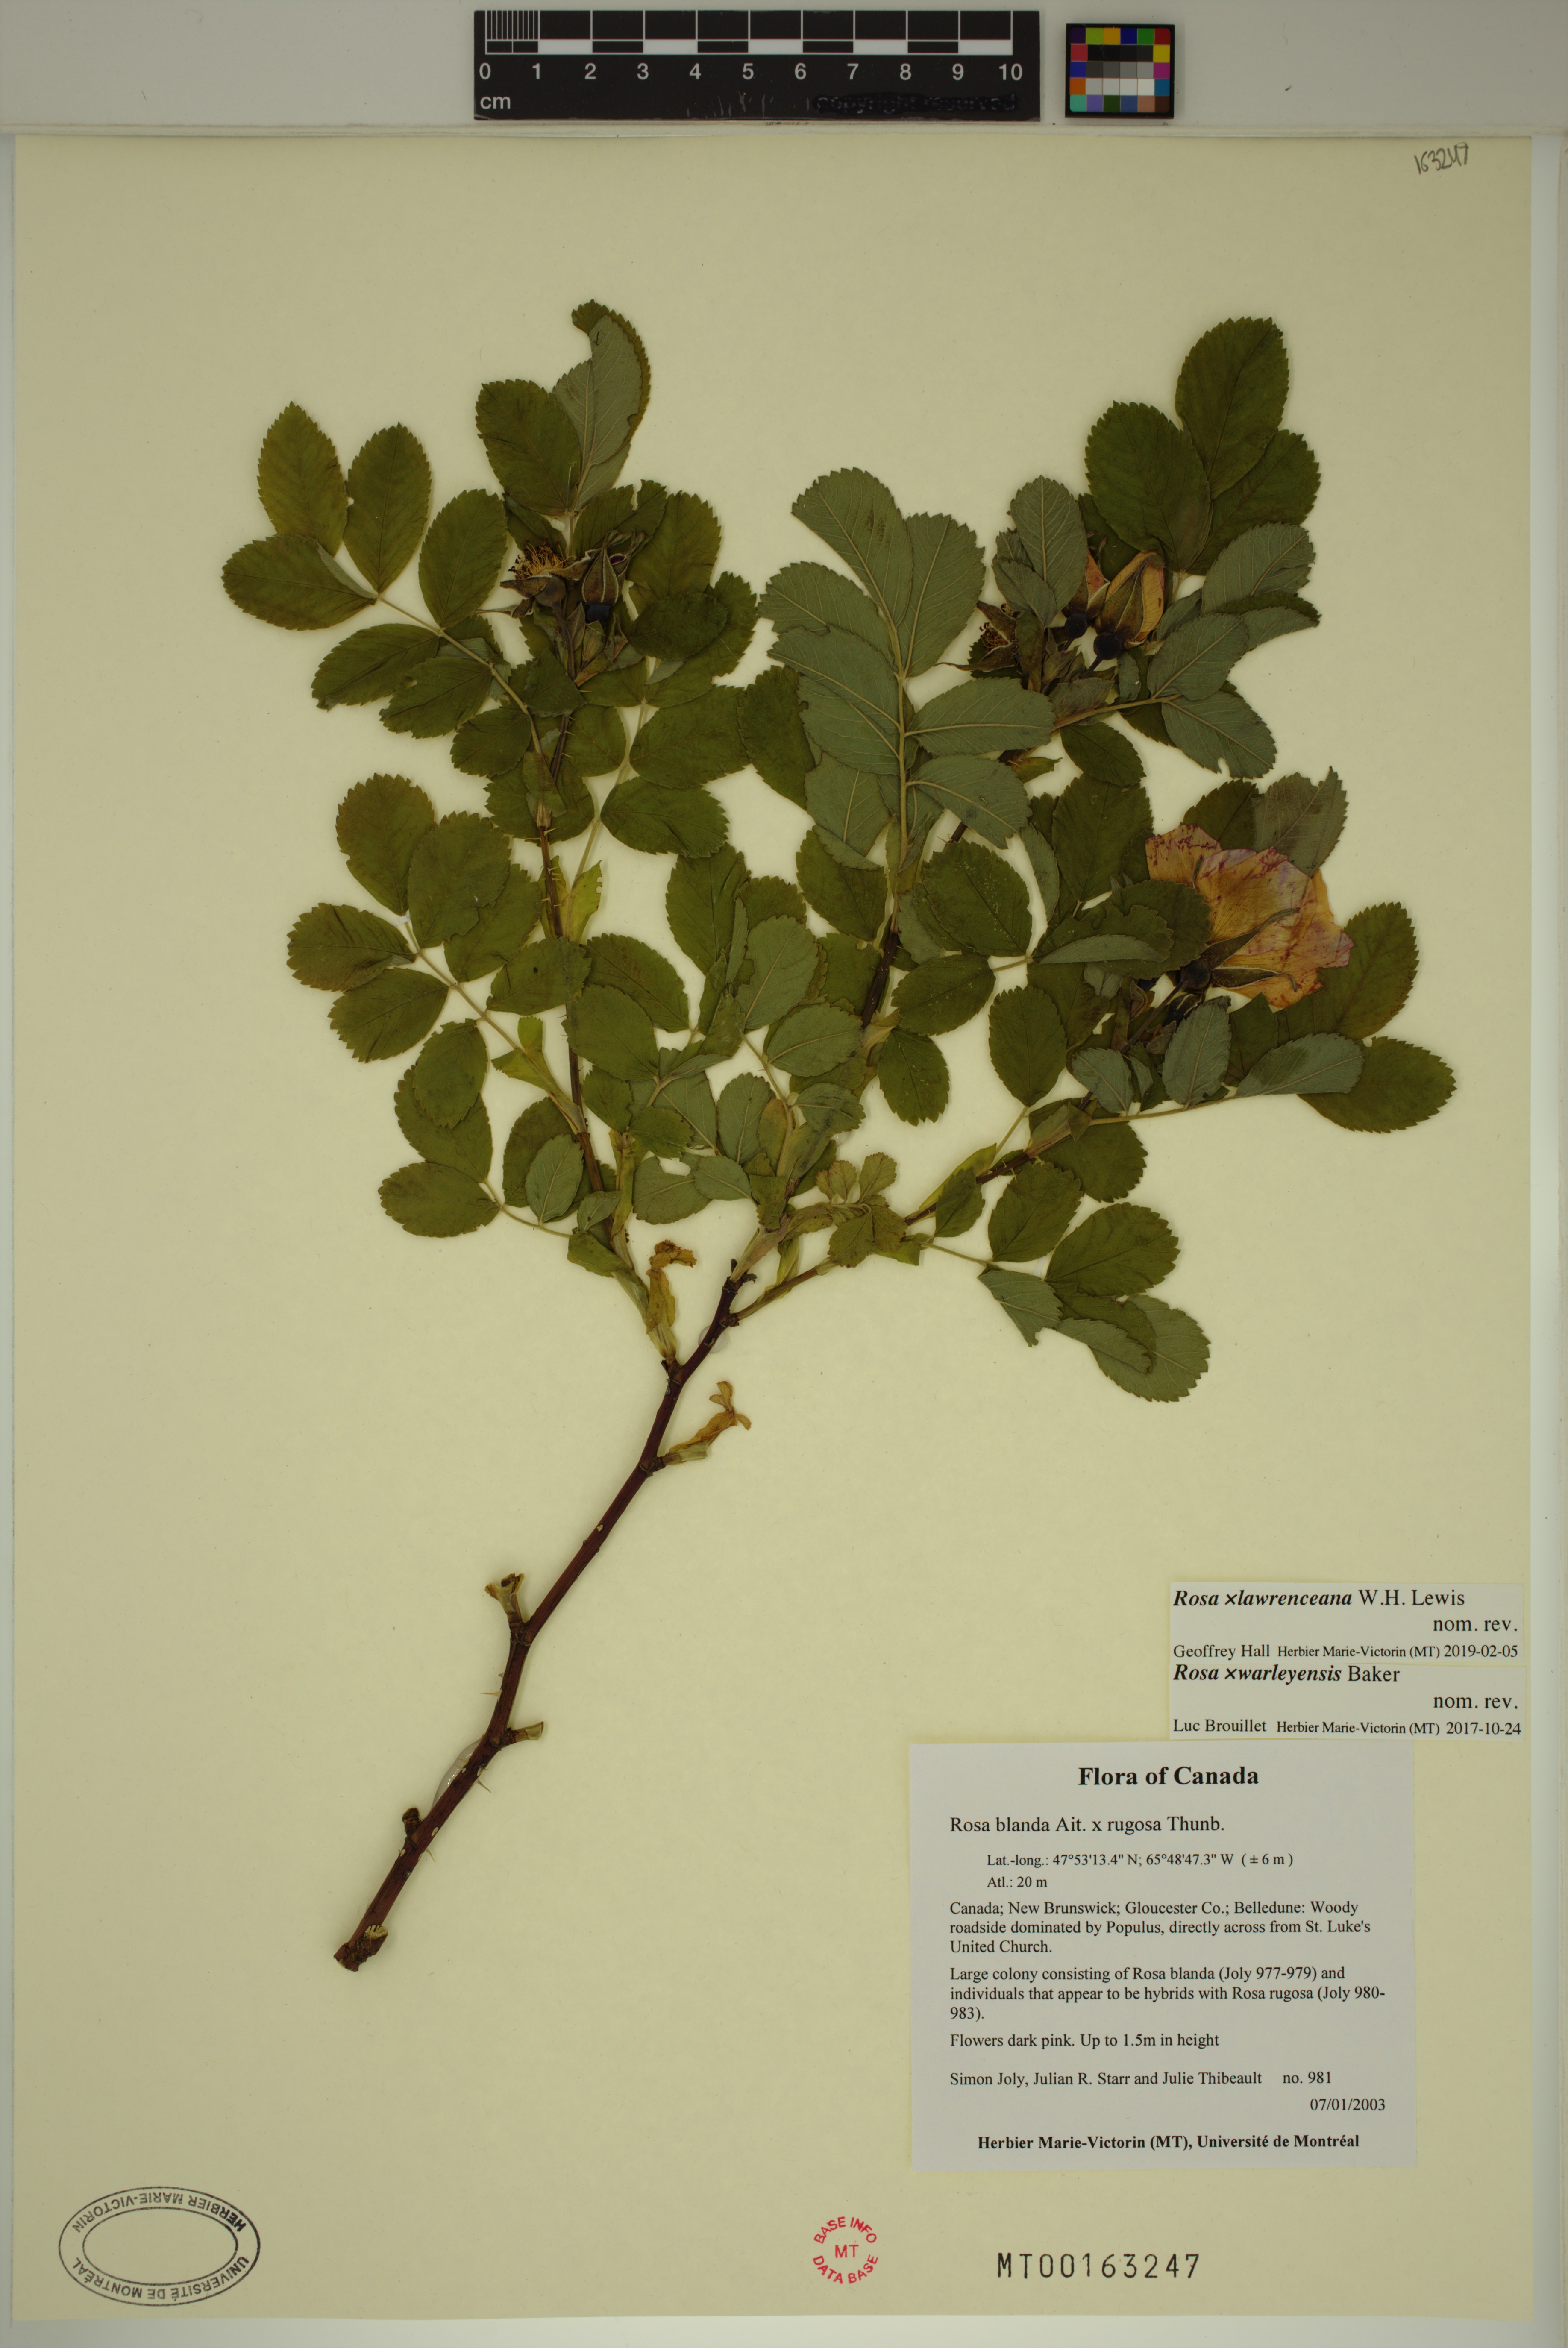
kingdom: Plantae
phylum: Tracheophyta
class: Magnoliopsida
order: Rosales
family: Rosaceae
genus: Rosa
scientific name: Rosa chinensis
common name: China rose
